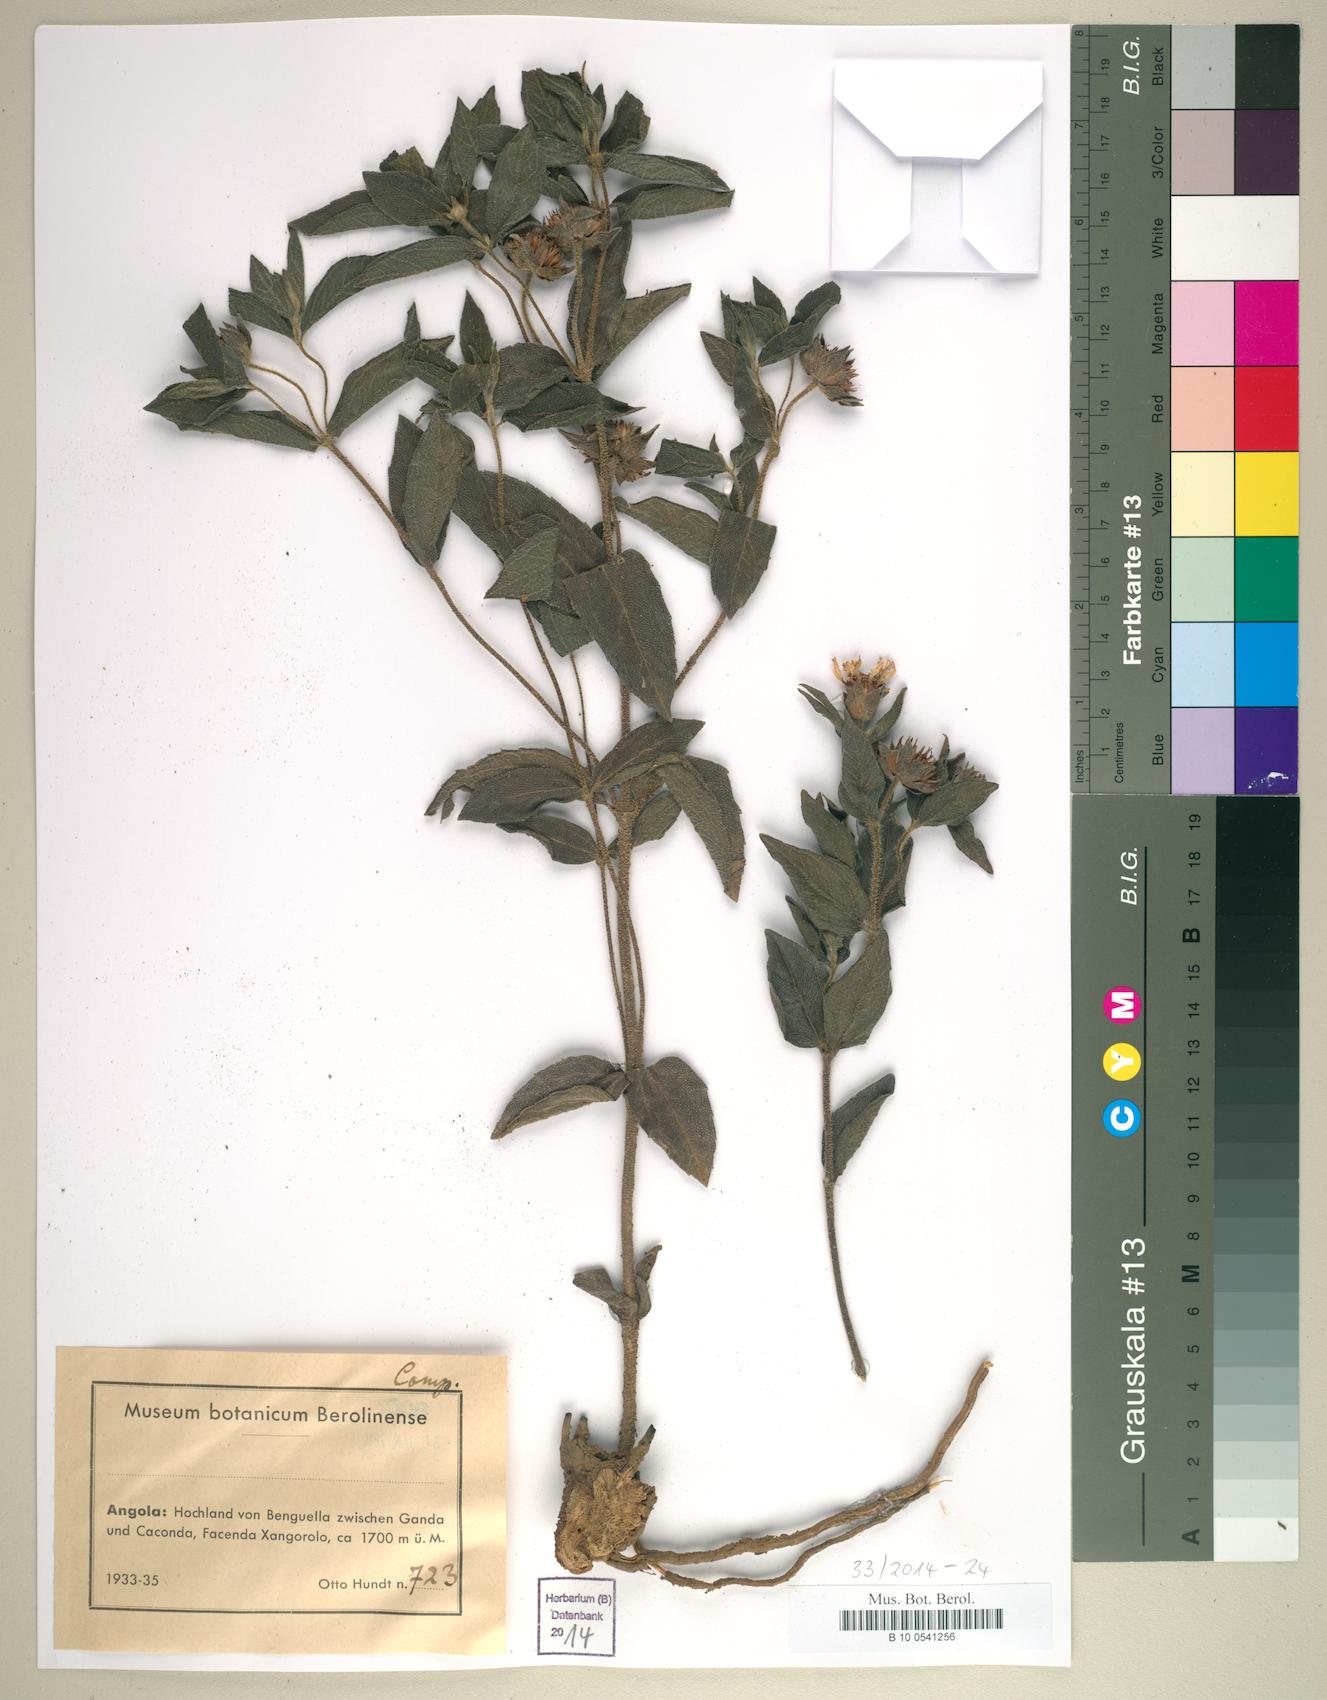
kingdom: Plantae
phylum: Tracheophyta
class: Magnoliopsida
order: Asterales
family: Asteraceae
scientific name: Asteraceae
